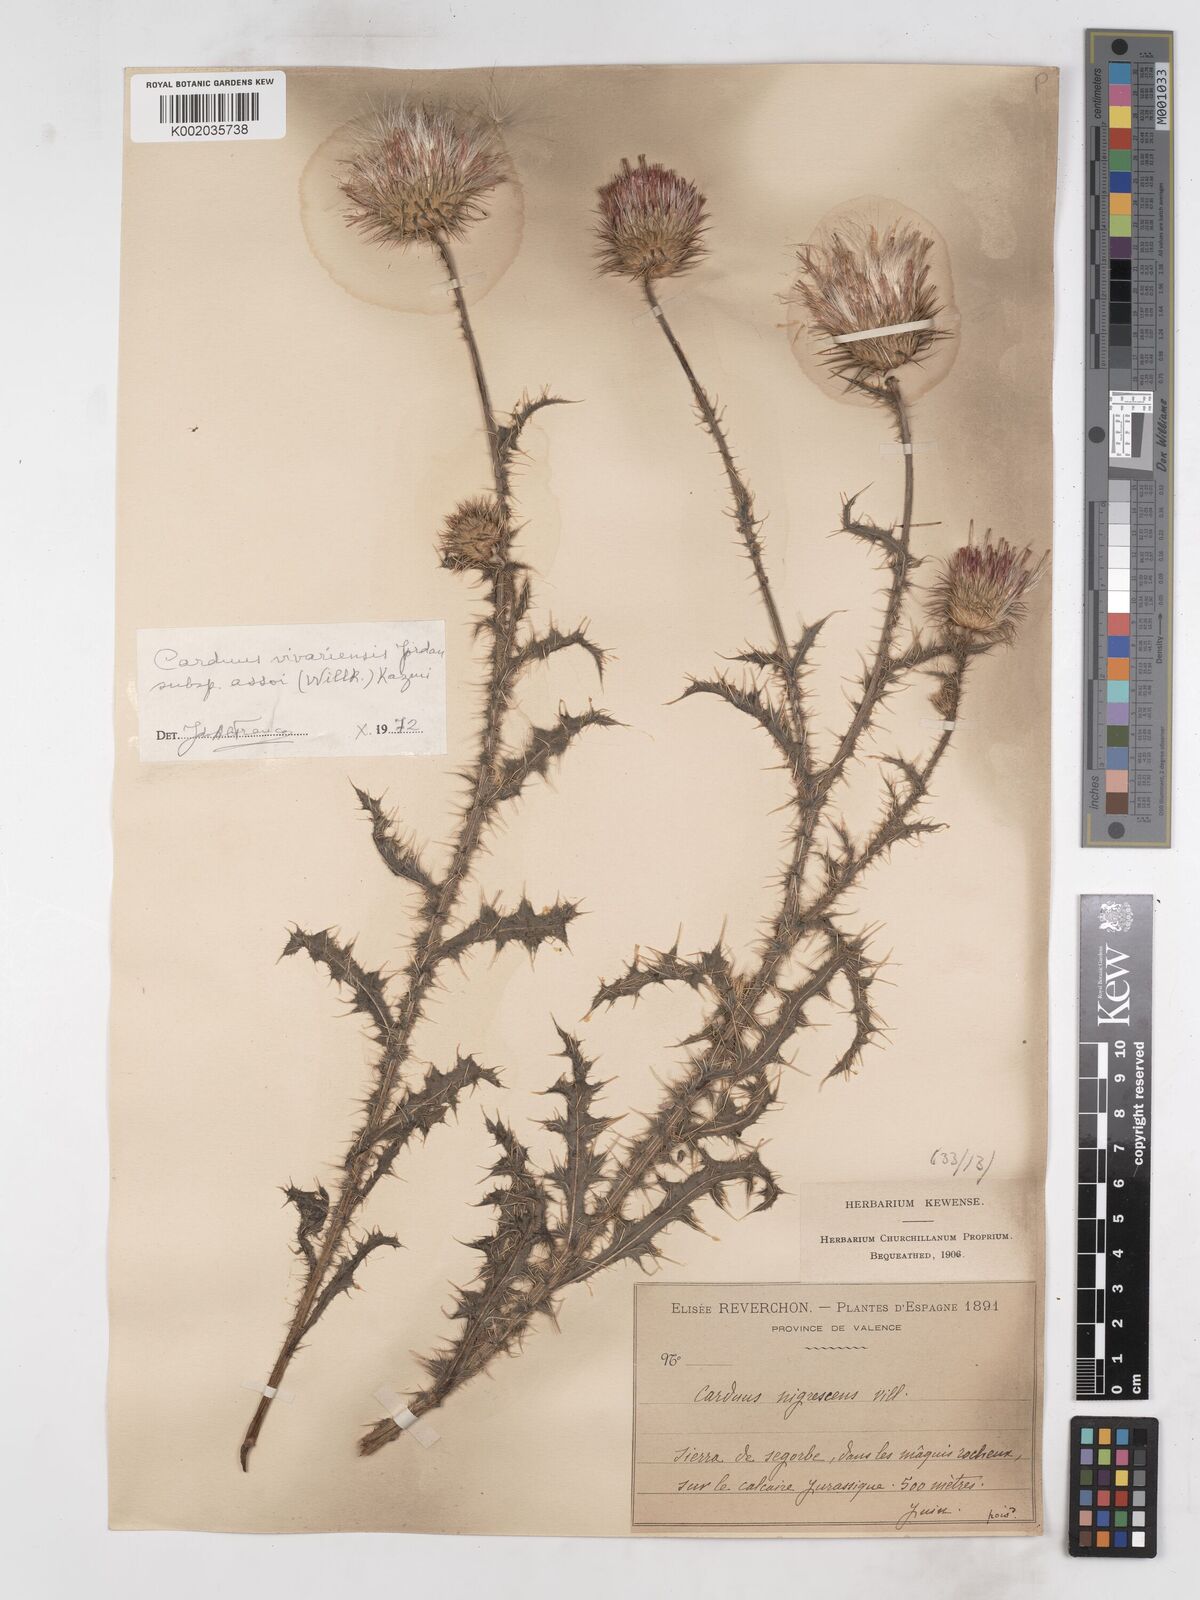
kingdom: Plantae
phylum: Tracheophyta
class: Magnoliopsida
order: Asterales
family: Asteraceae
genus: Carduus
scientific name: Carduus nigrescens
